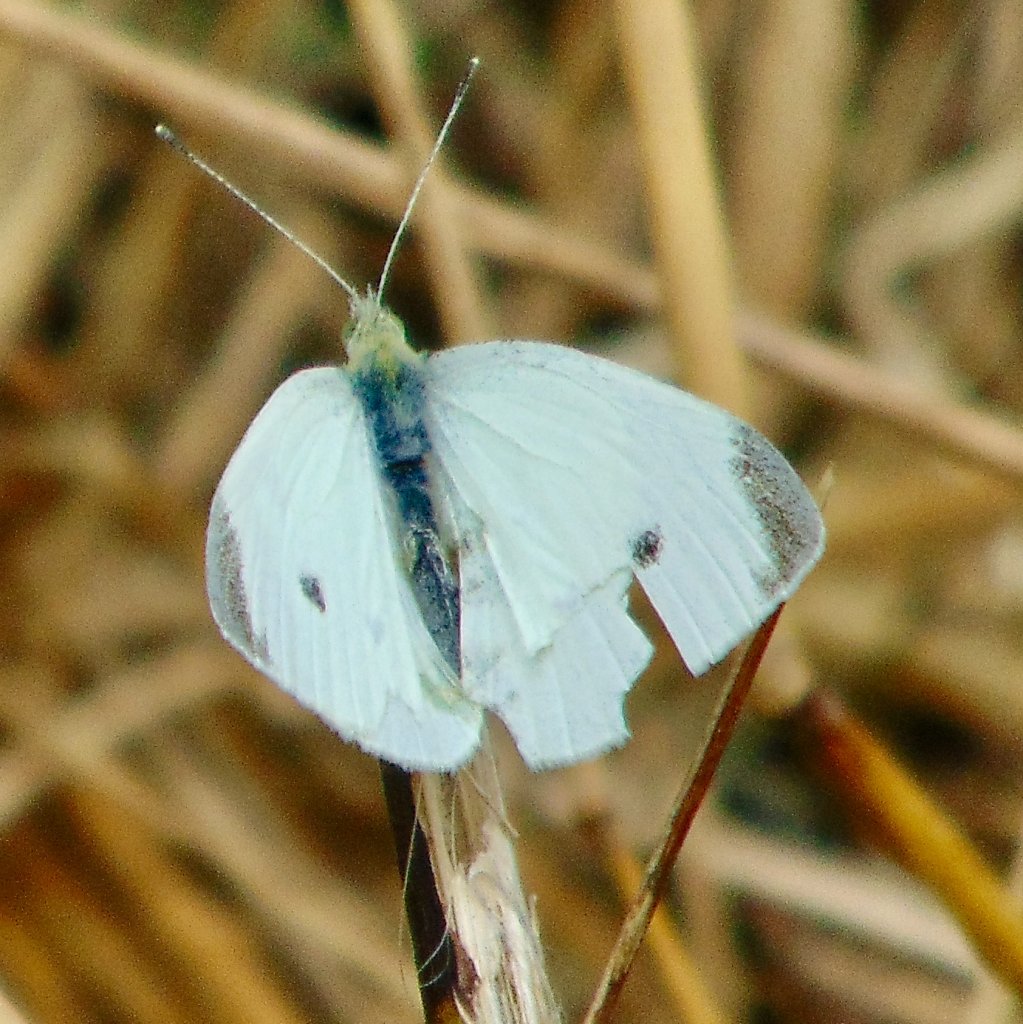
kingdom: Animalia
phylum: Arthropoda
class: Insecta
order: Lepidoptera
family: Pieridae
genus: Pieris
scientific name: Pieris rapae
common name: Cabbage White
